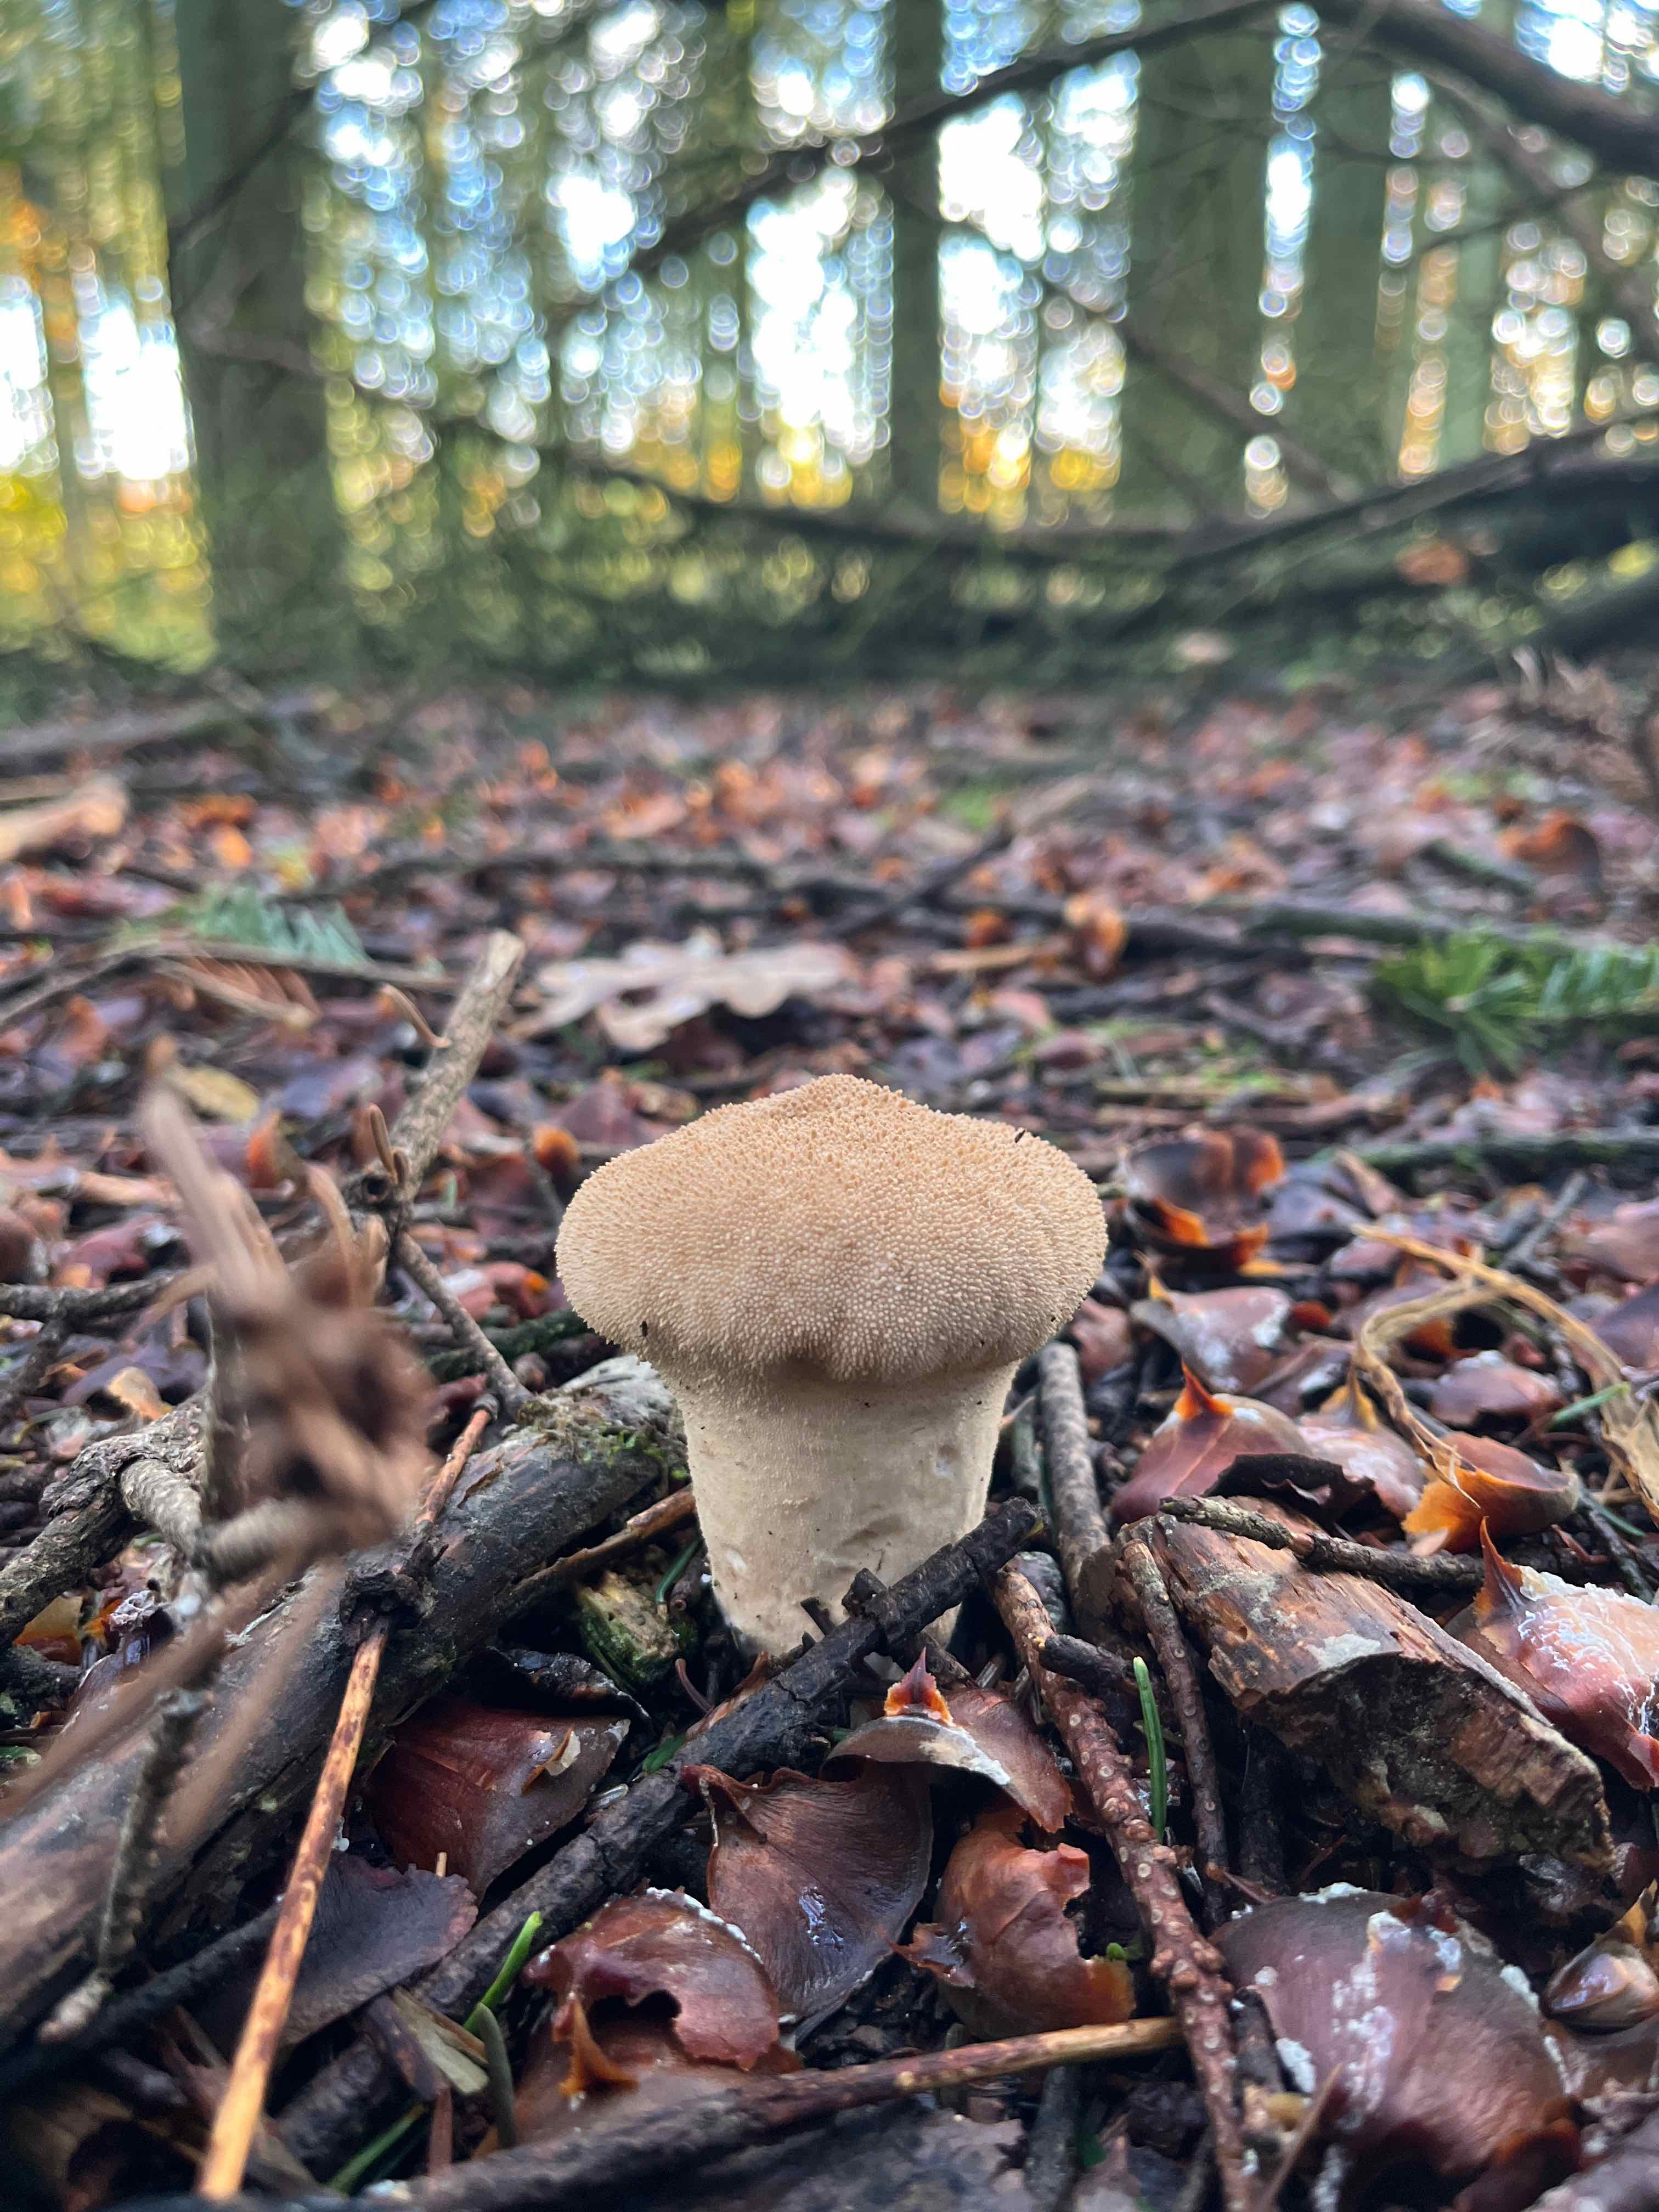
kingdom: Fungi
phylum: Basidiomycota
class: Agaricomycetes
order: Agaricales
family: Lycoperdaceae
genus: Lycoperdon
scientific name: Lycoperdon perlatum
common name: krystal-støvbold
